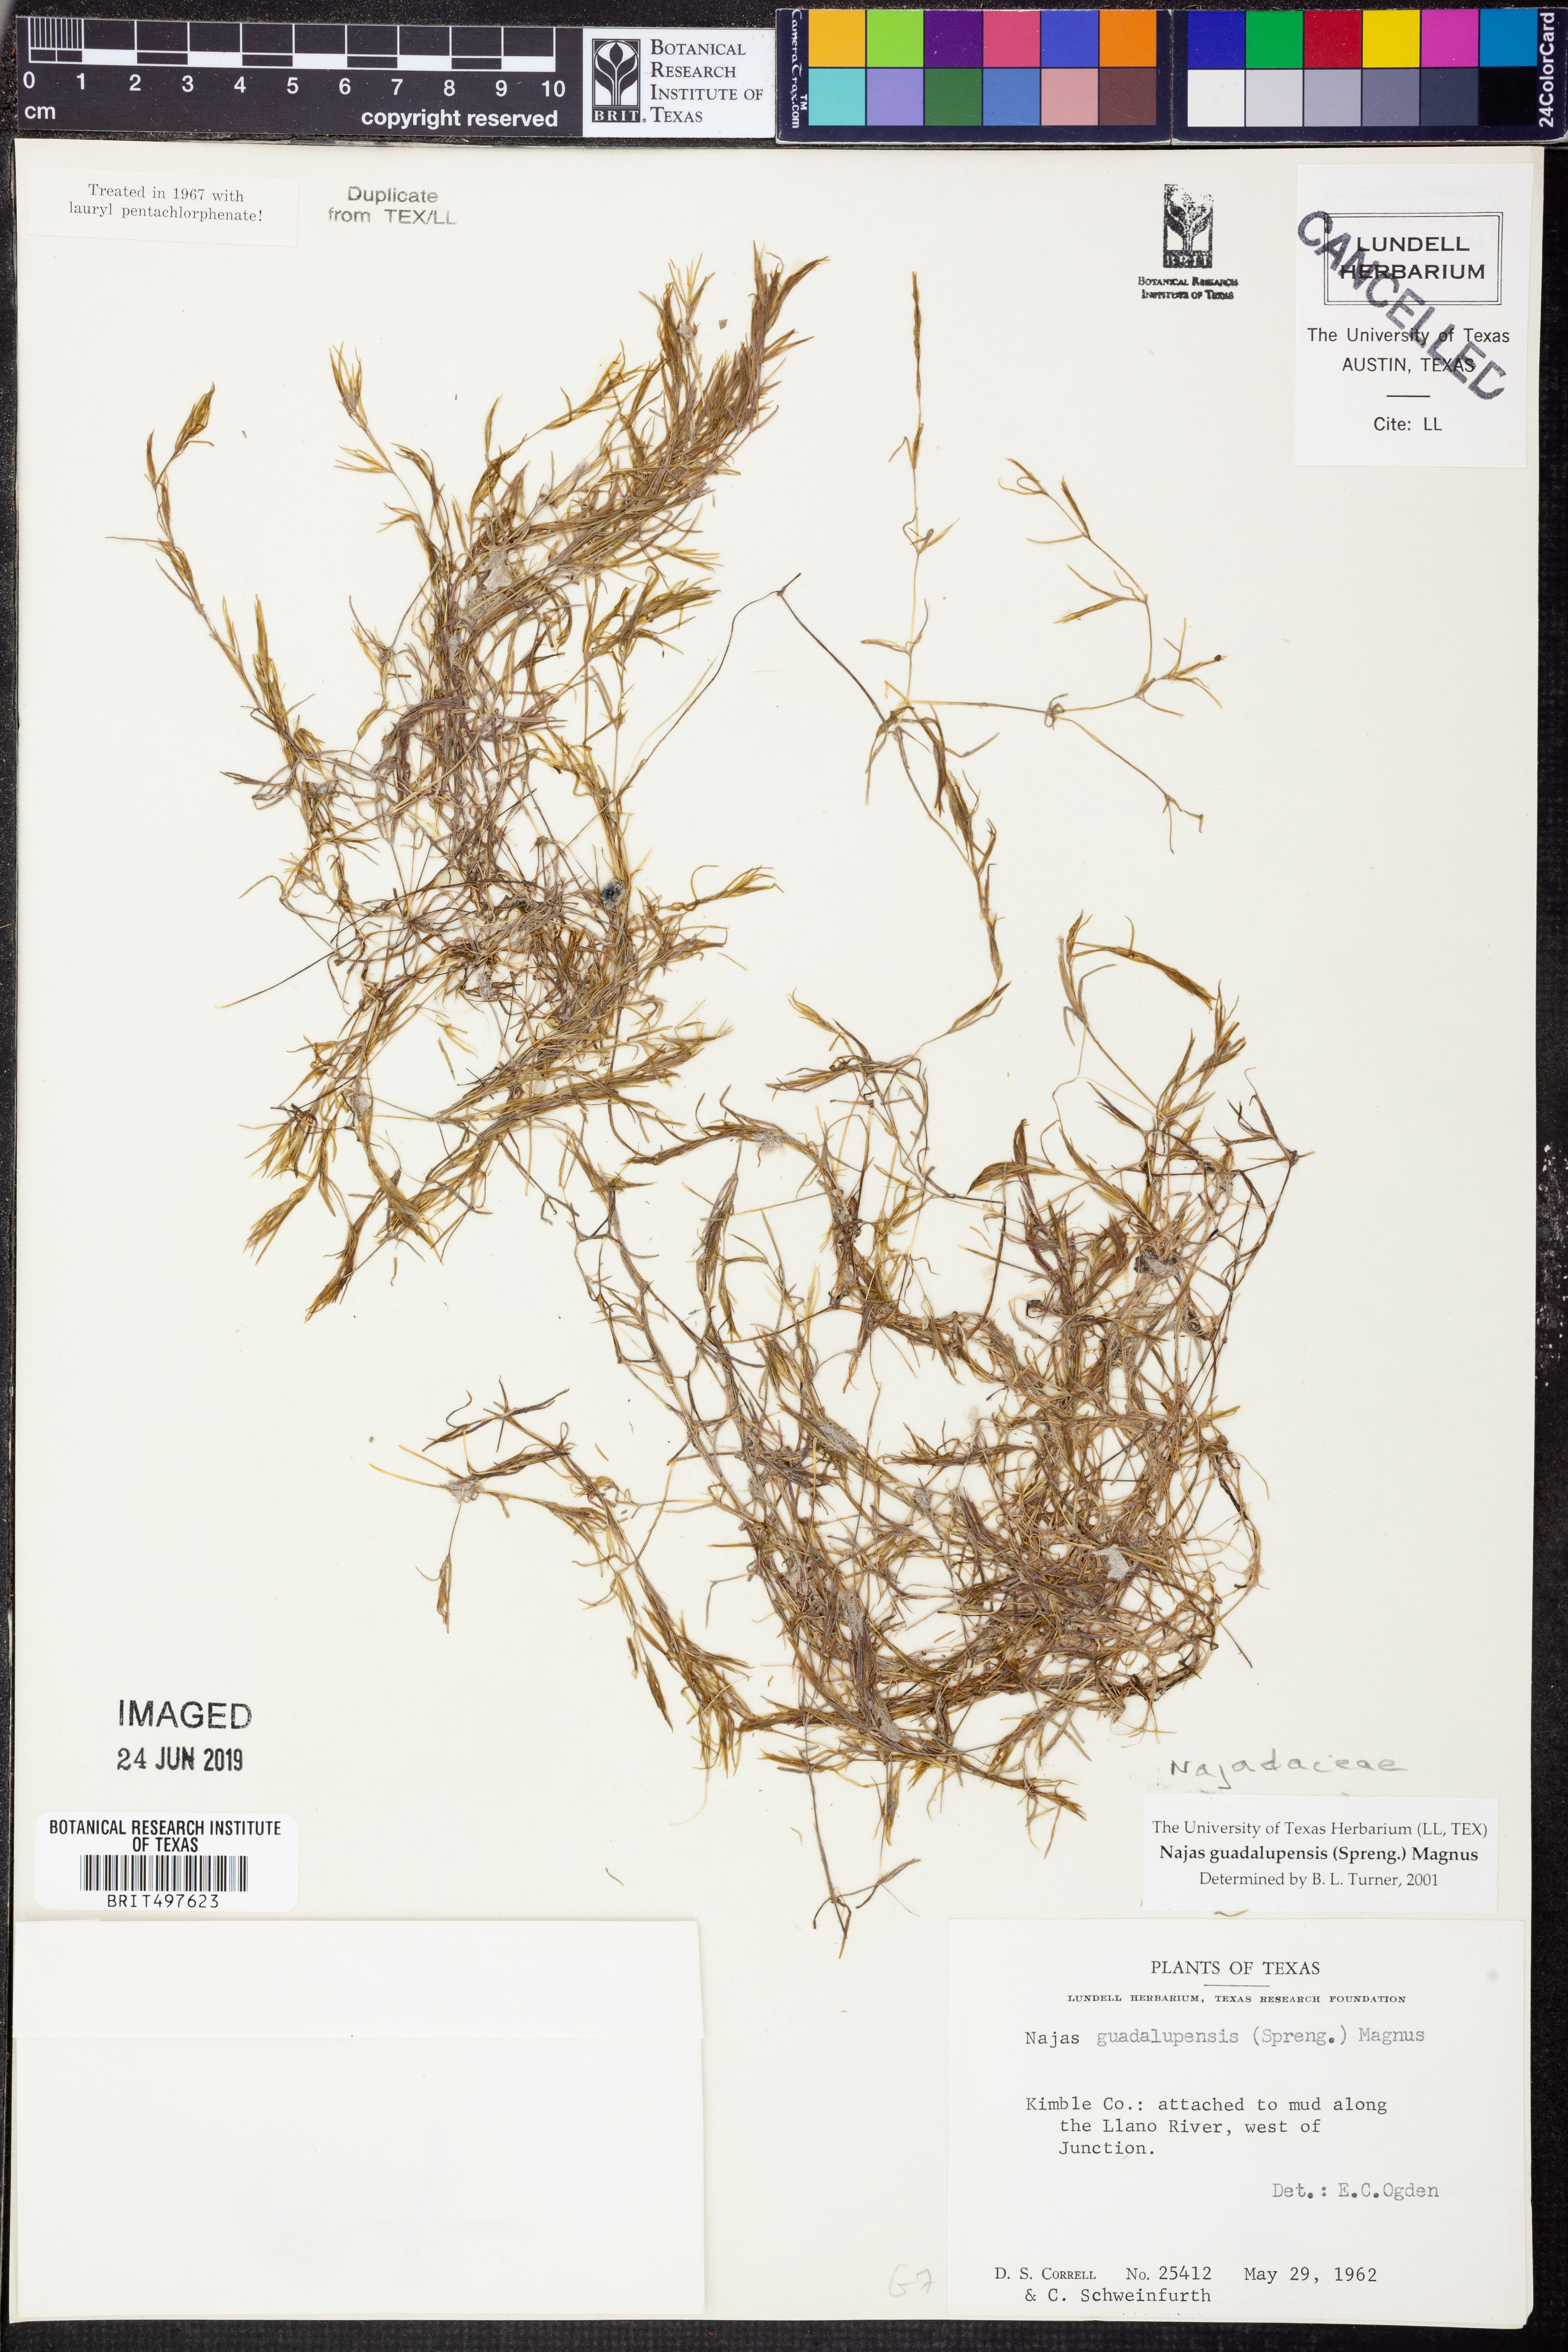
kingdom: Plantae
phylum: Tracheophyta
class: Liliopsida
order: Alismatales
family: Hydrocharitaceae
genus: Najas
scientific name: Najas guadalupensis
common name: Southern naiad
